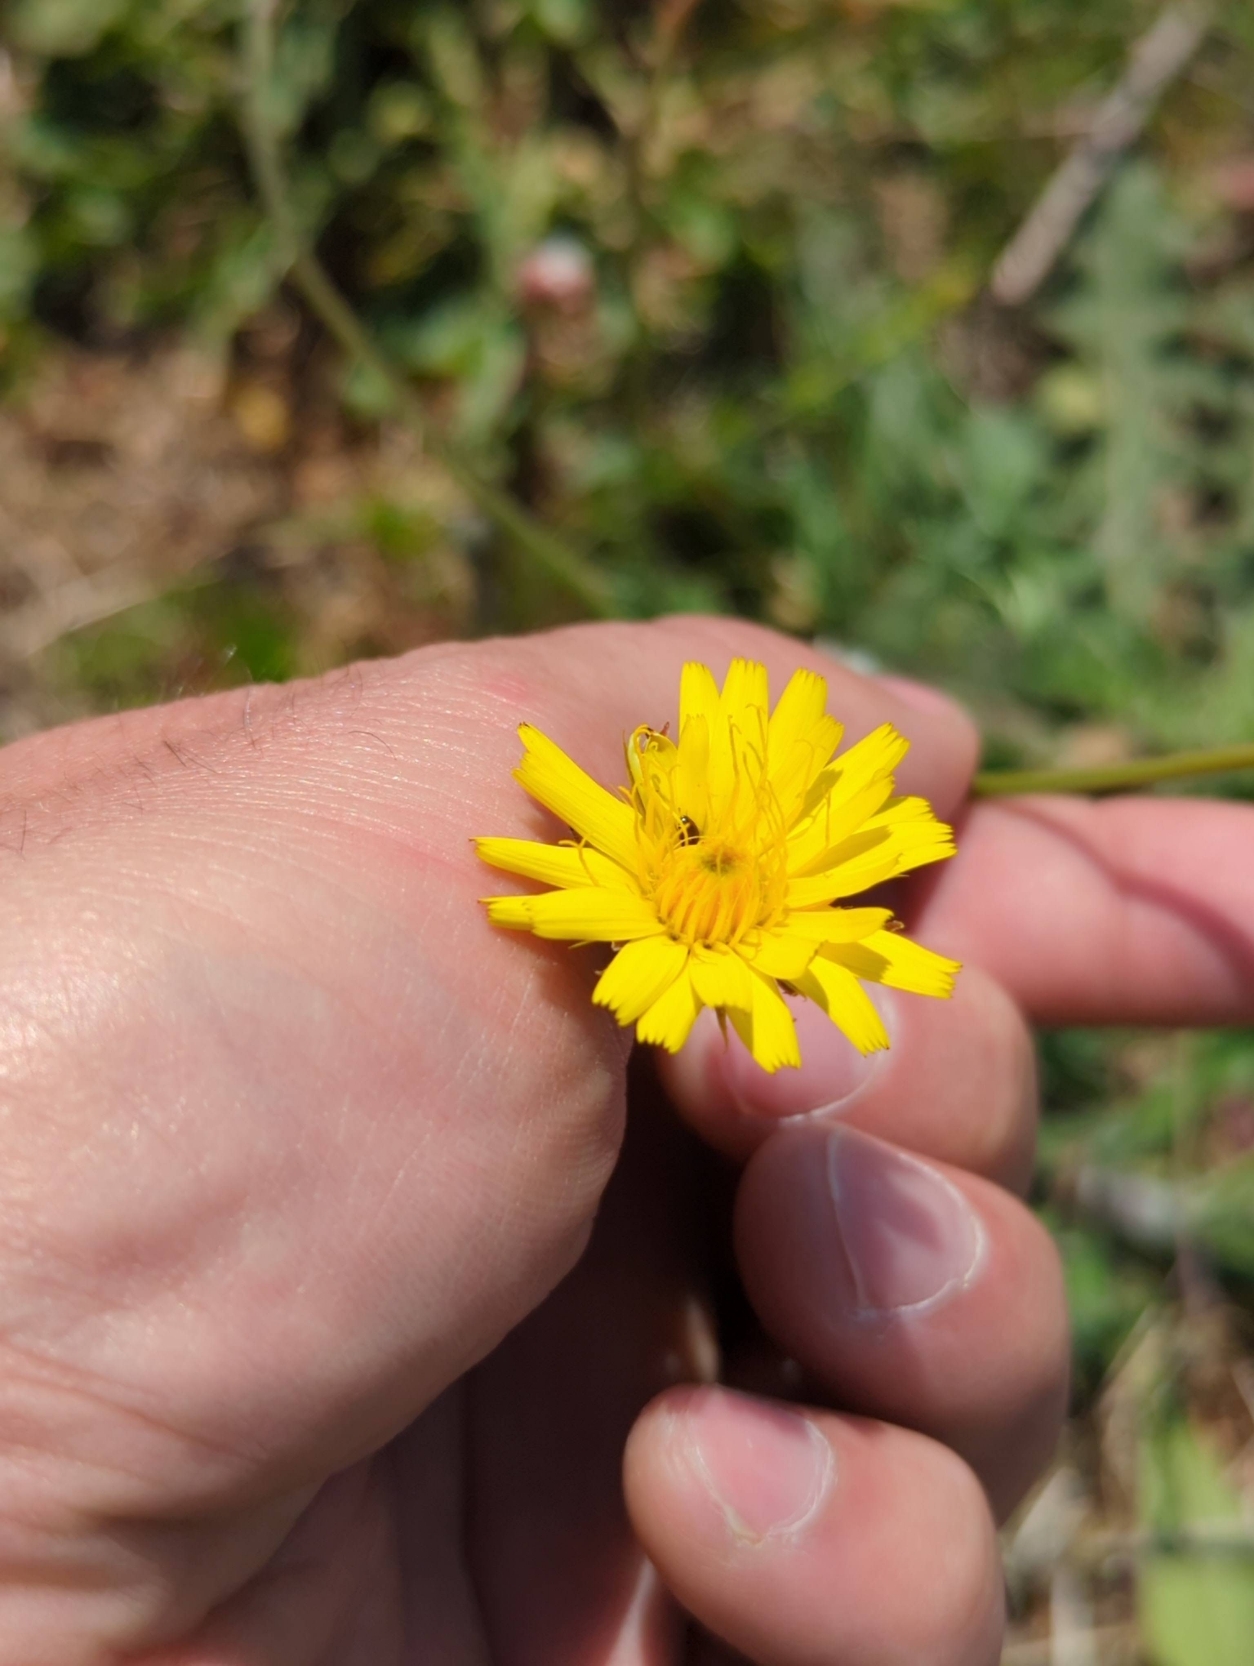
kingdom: Plantae
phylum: Tracheophyta
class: Magnoliopsida
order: Asterales
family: Asteraceae
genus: Hypochaeris
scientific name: Hypochaeris radicata
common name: Almindelig kongepen
